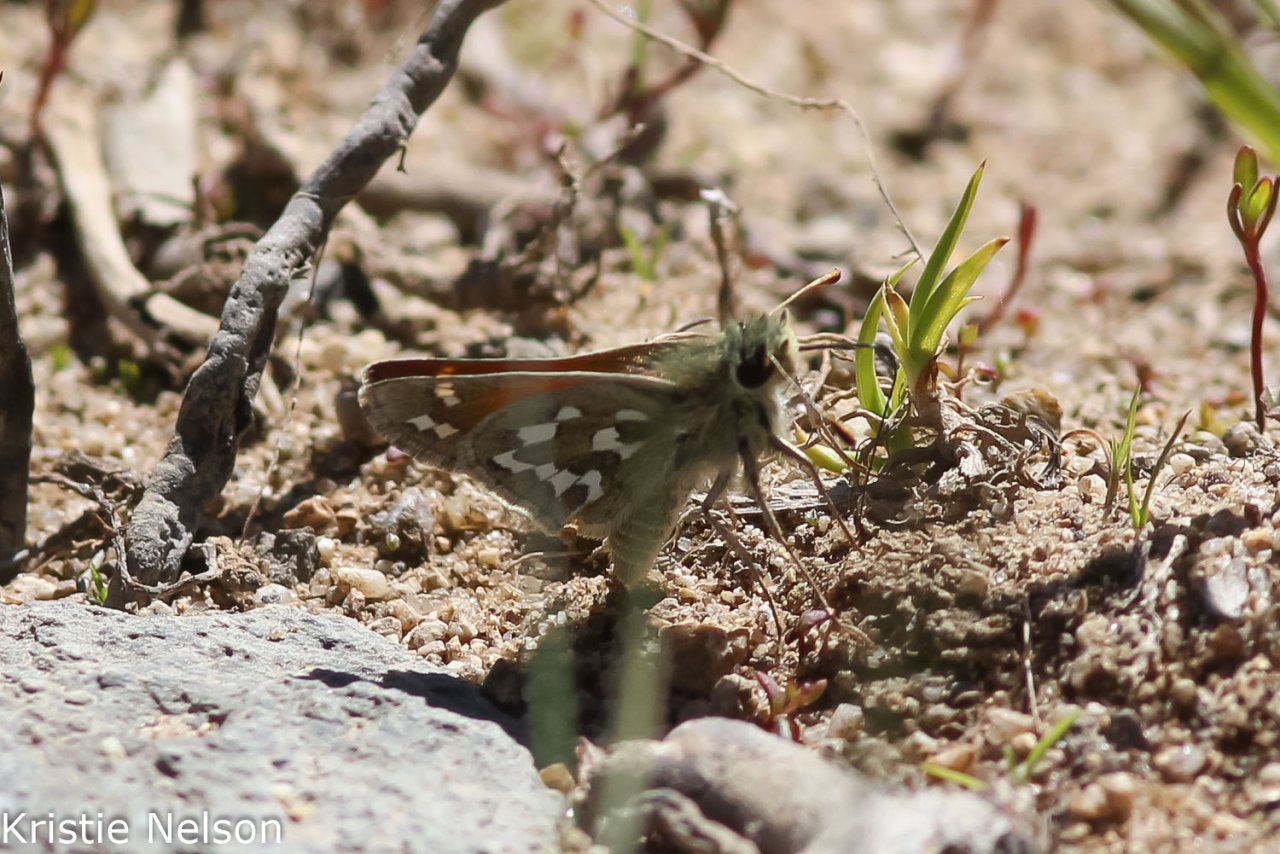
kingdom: Animalia
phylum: Arthropoda
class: Insecta
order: Lepidoptera
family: Hesperiidae
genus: Hesperia
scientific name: Hesperia nevada
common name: Nevada Skipper
